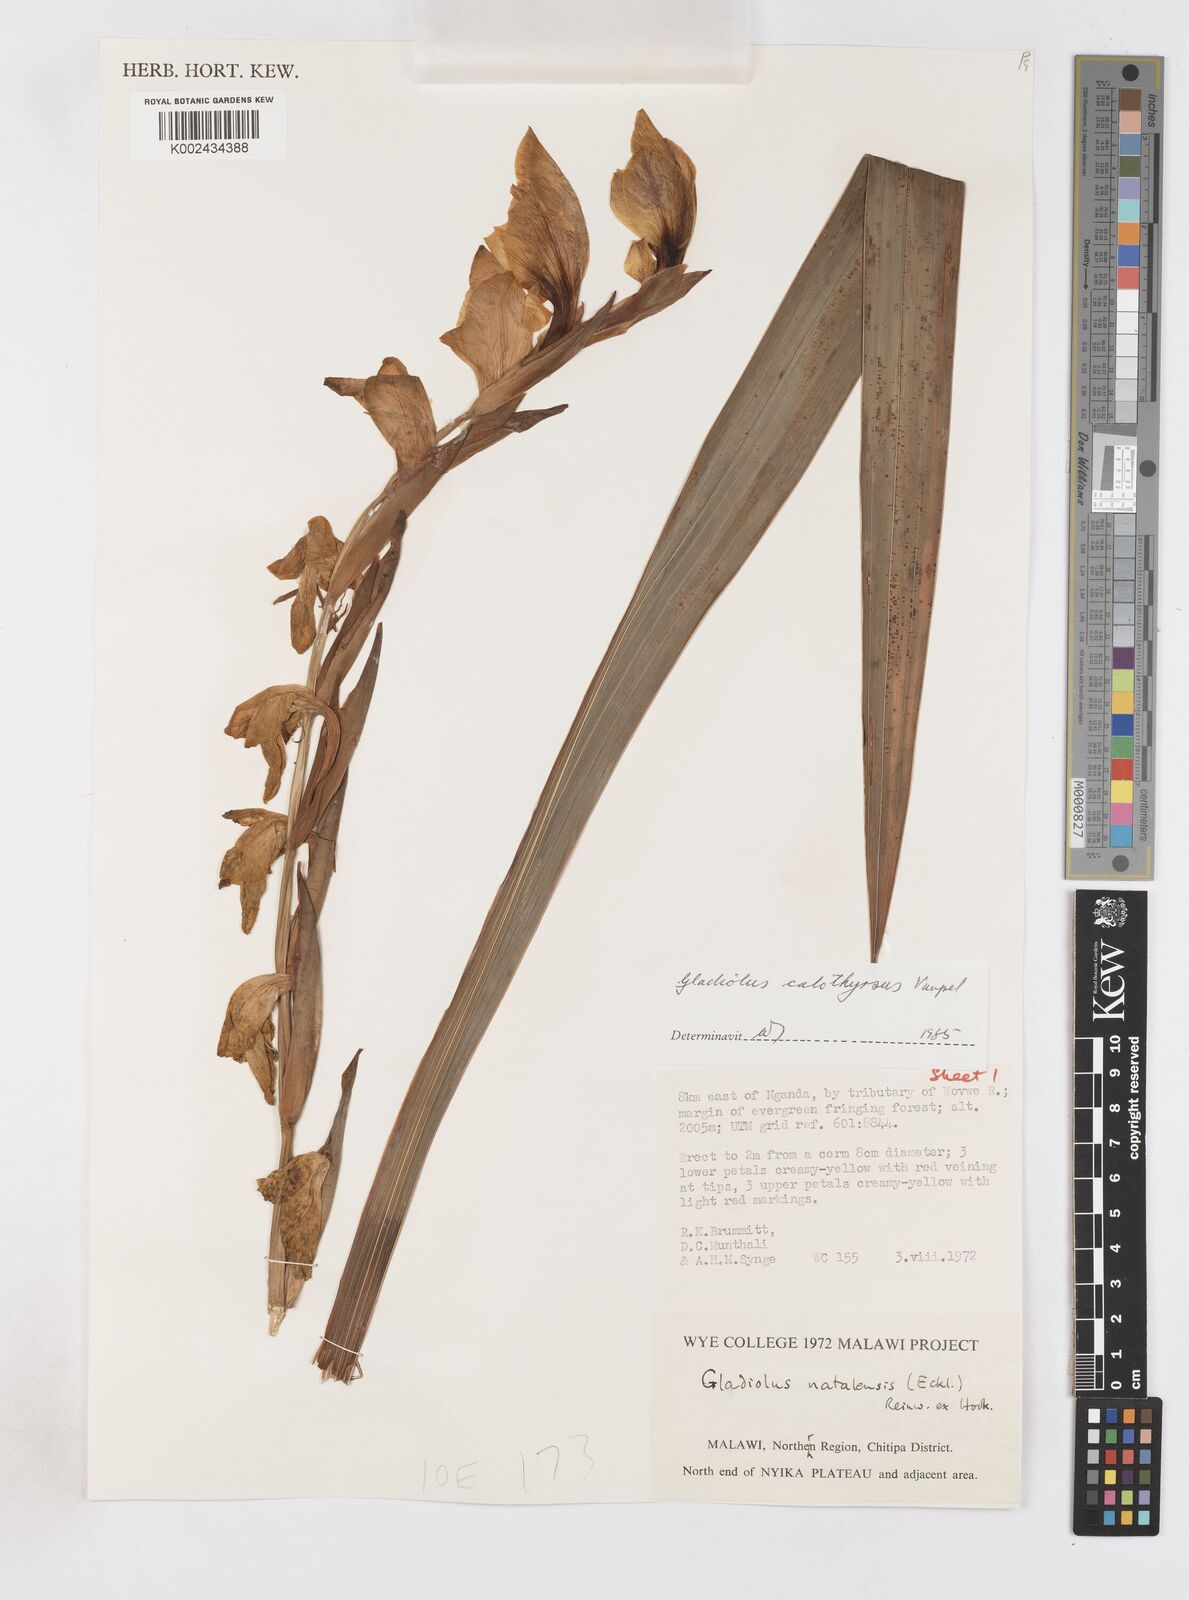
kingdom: Plantae
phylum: Tracheophyta
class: Liliopsida
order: Asparagales
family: Iridaceae
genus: Gladiolus
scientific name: Gladiolus dalenii
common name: Cornflag
